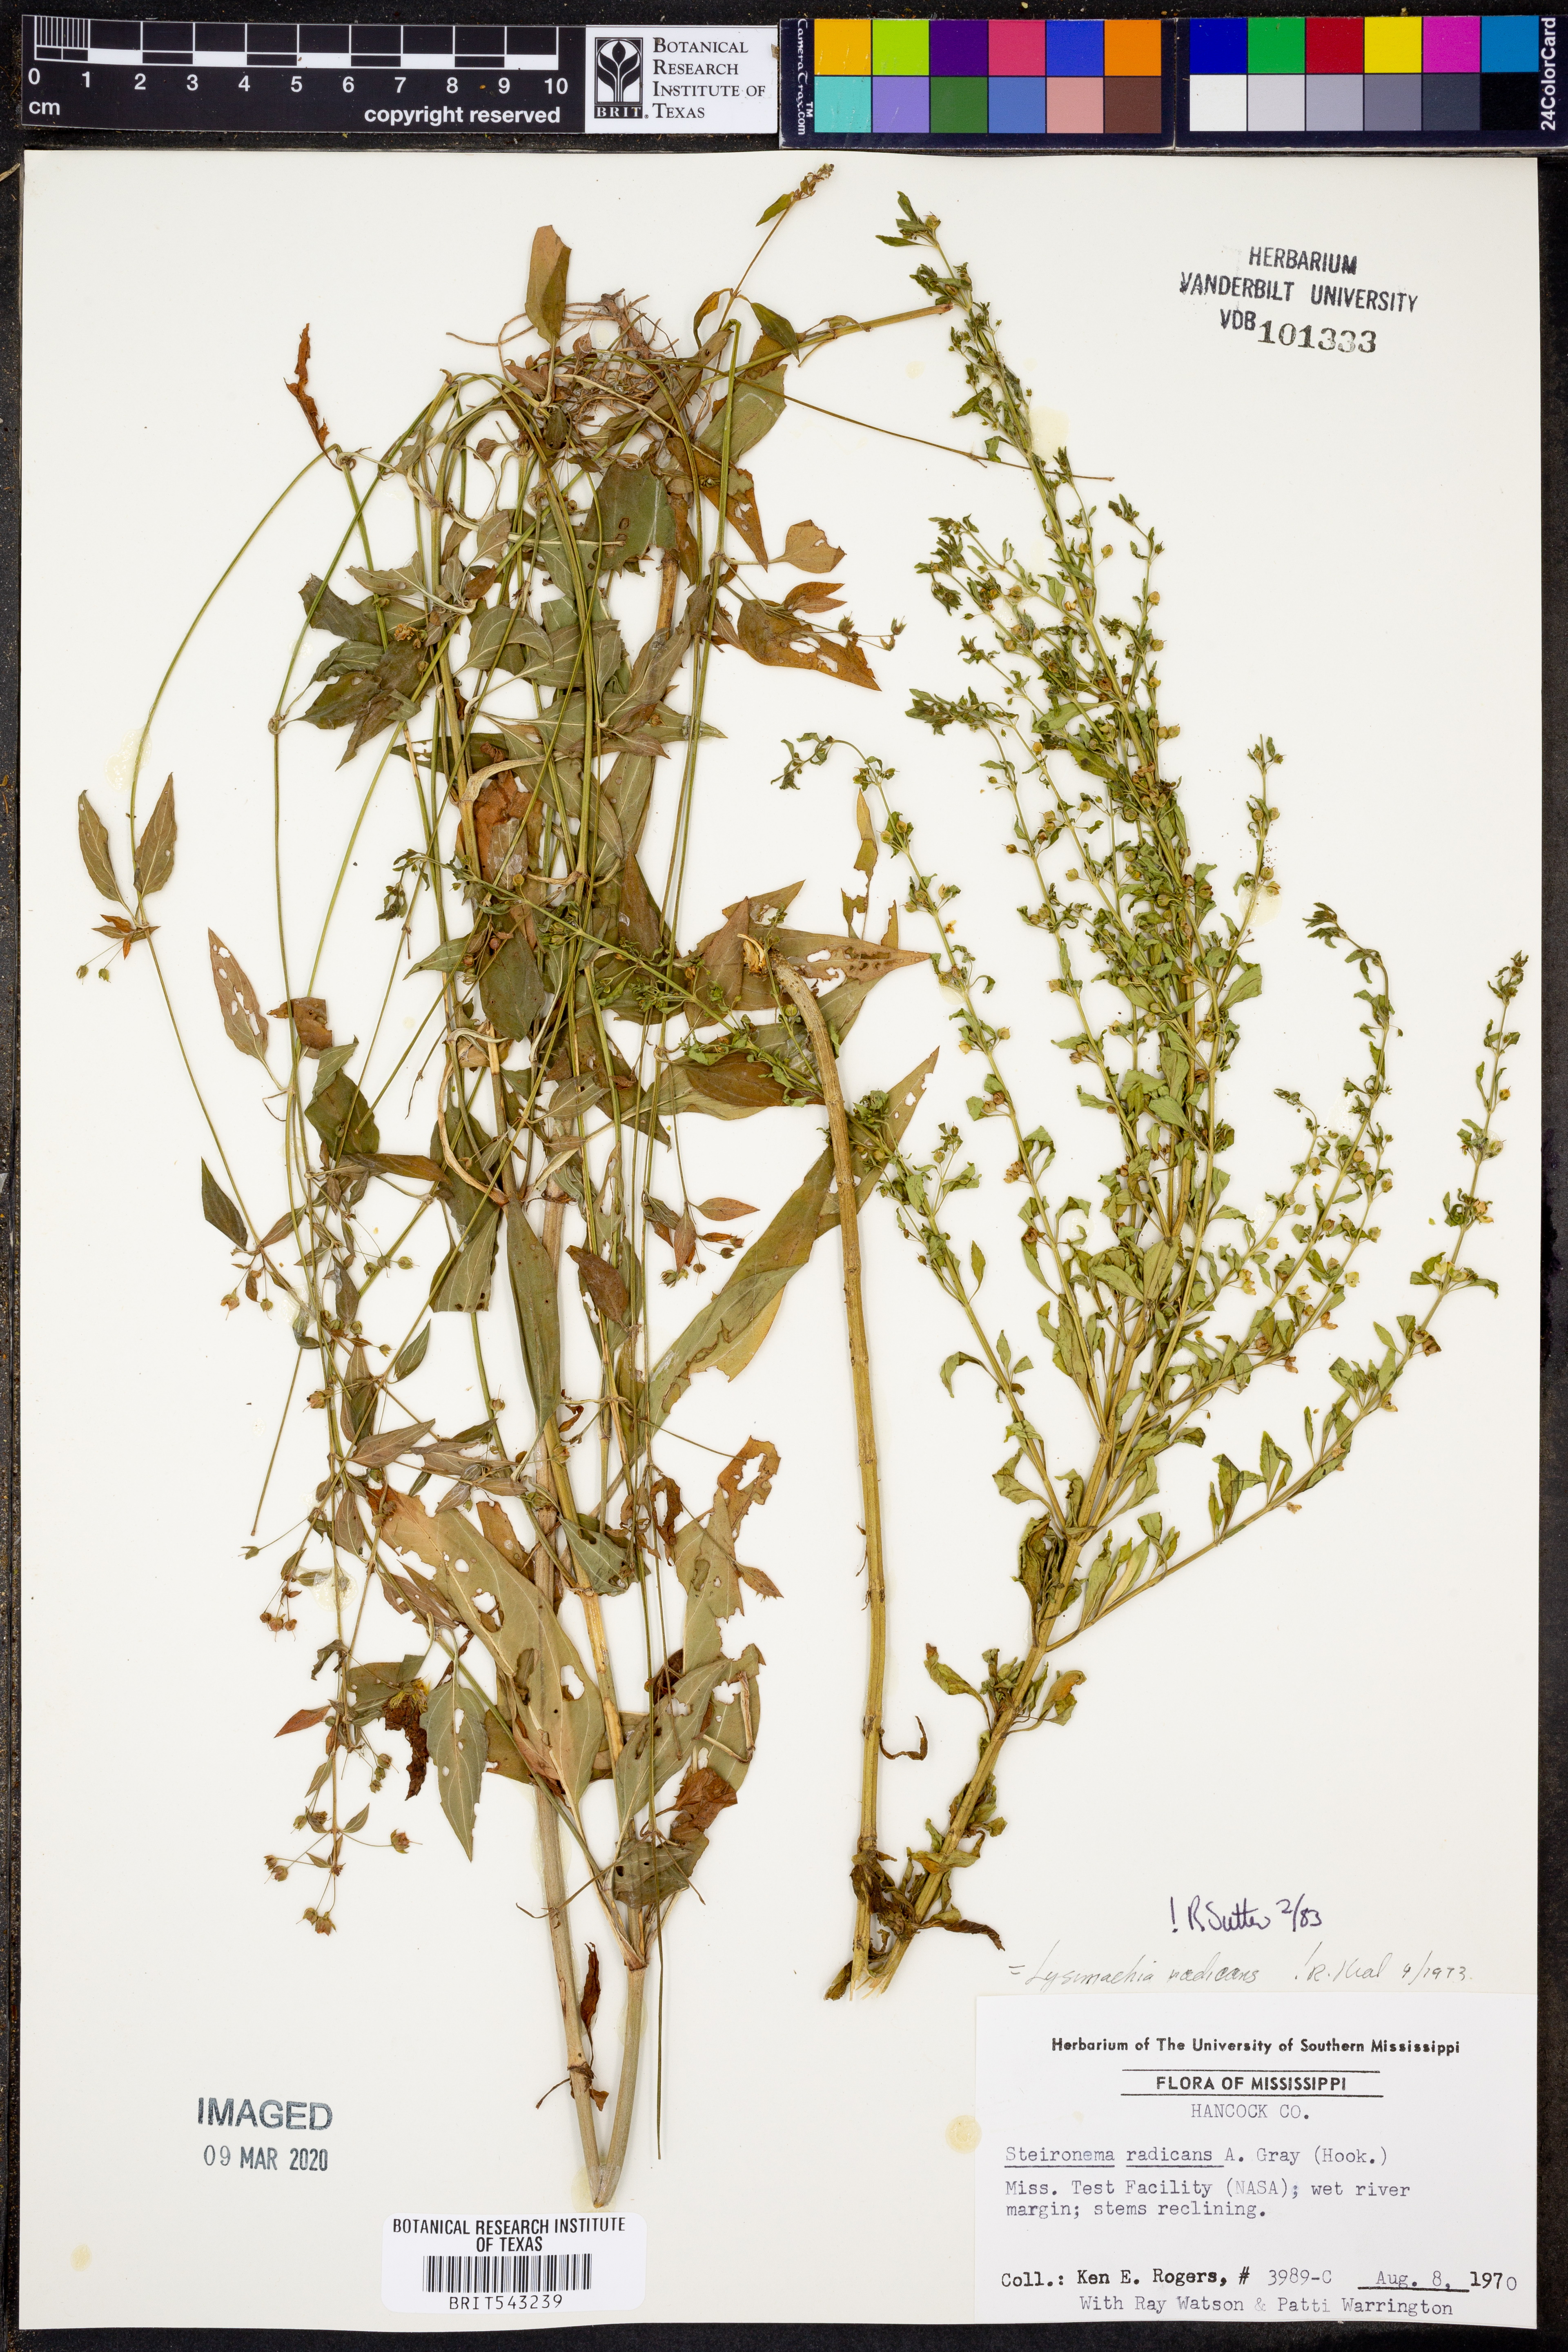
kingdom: Plantae
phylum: Tracheophyta
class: Magnoliopsida
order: Ericales
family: Primulaceae
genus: Lysimachia
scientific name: Lysimachia radicans
